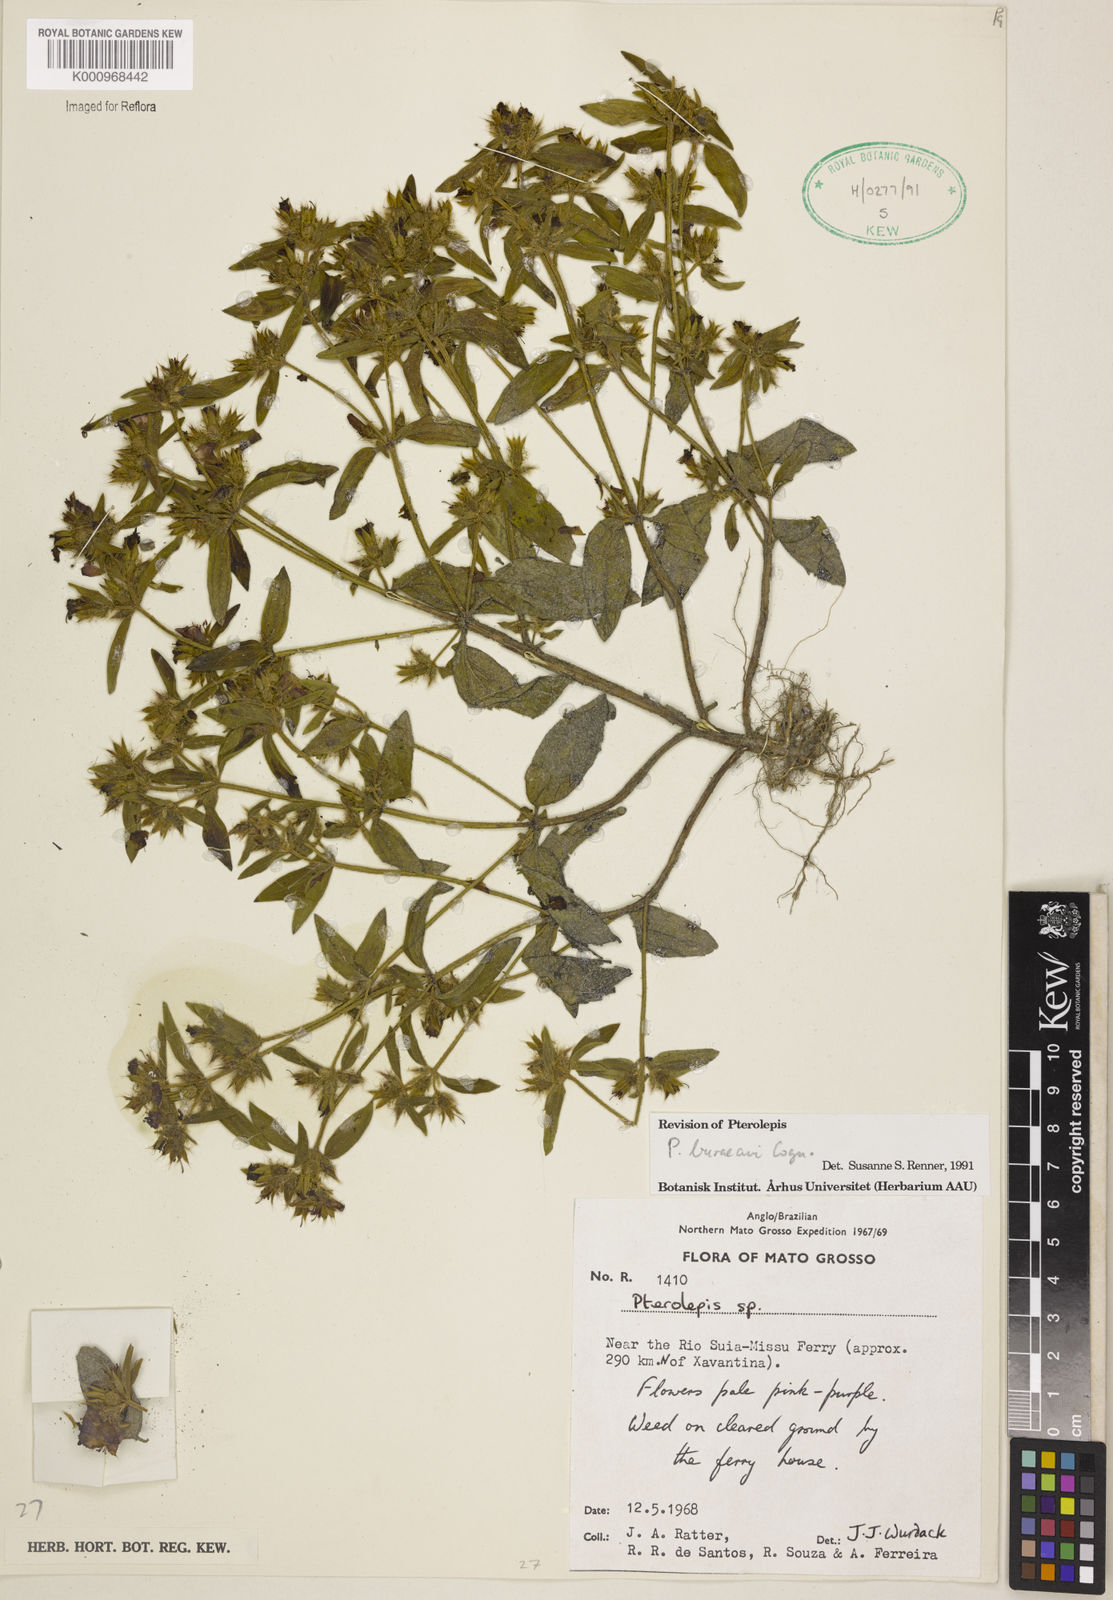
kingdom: Plantae
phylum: Tracheophyta
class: Magnoliopsida
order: Myrtales
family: Melastomataceae
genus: Pterolepis
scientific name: Pterolepis buraeavi
